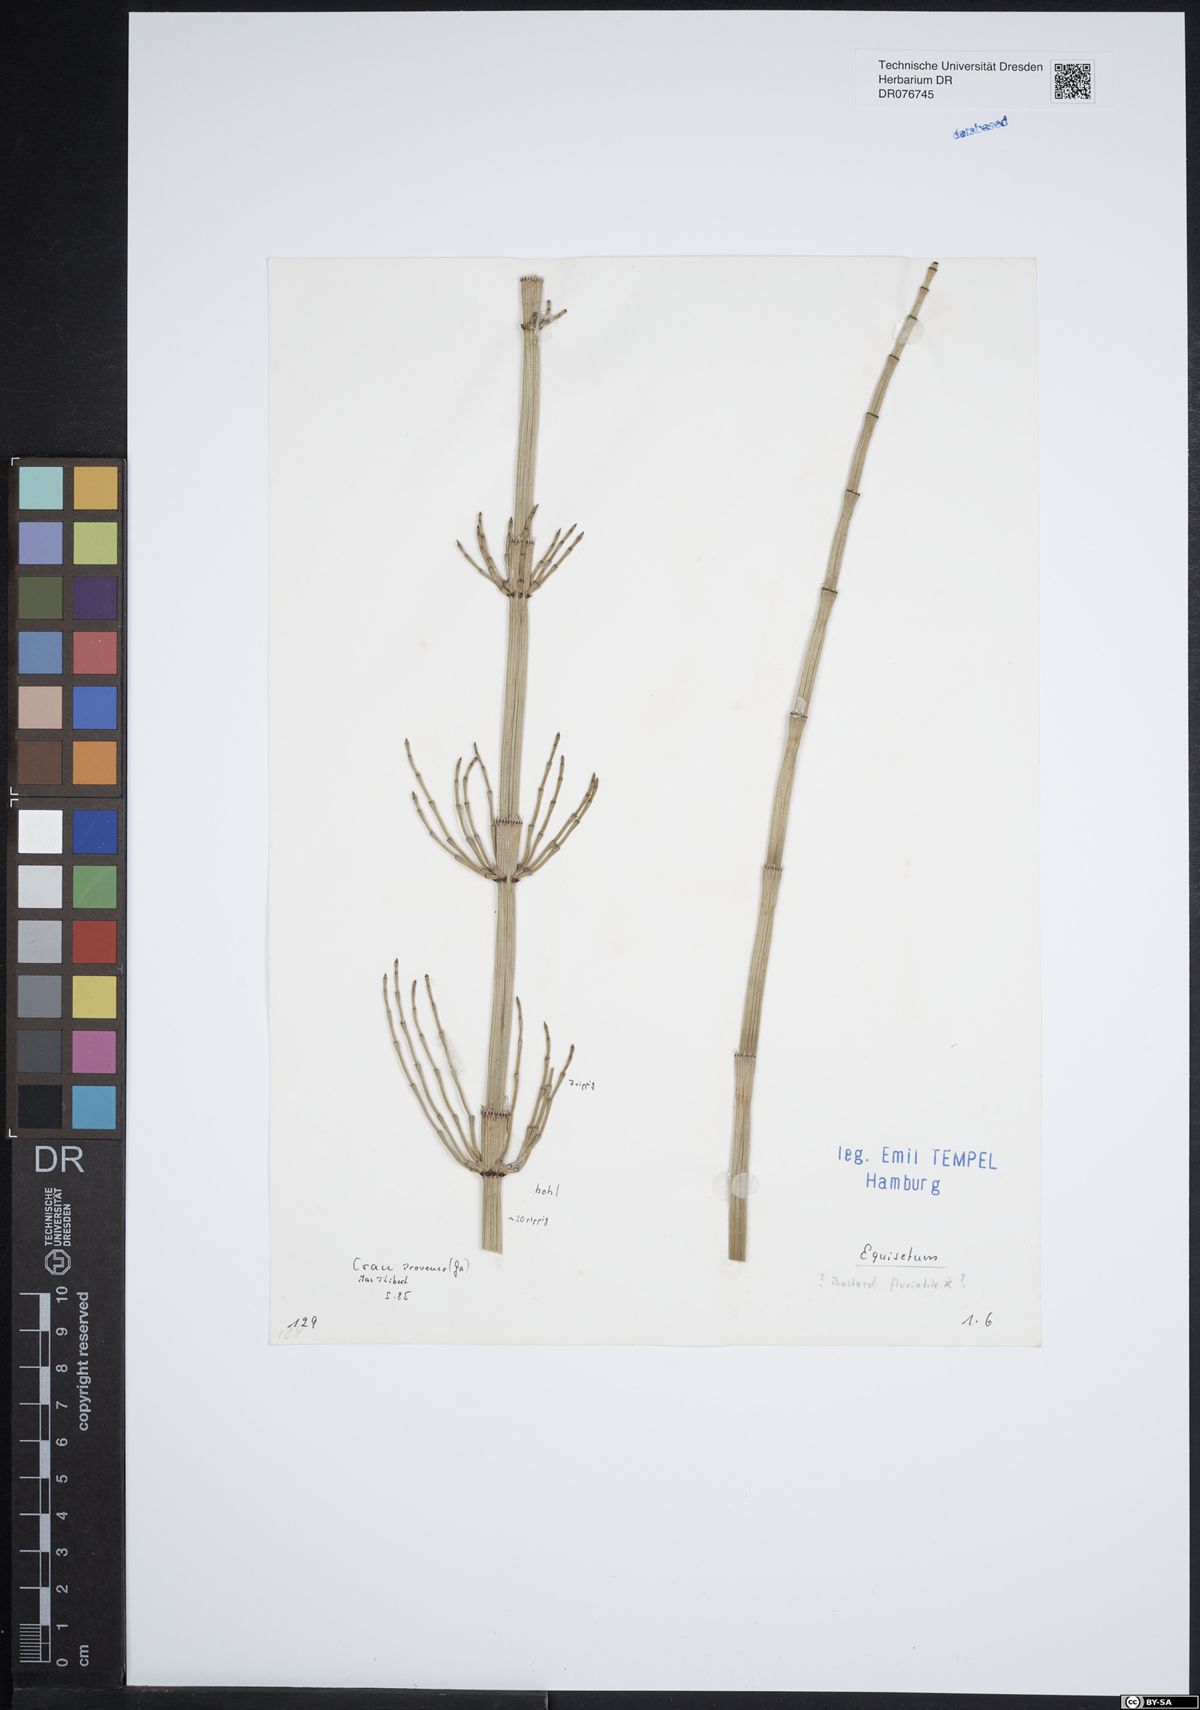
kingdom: Plantae
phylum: Tracheophyta
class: Polypodiopsida
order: Equisetales
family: Equisetaceae
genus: Equisetum
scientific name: Equisetum
